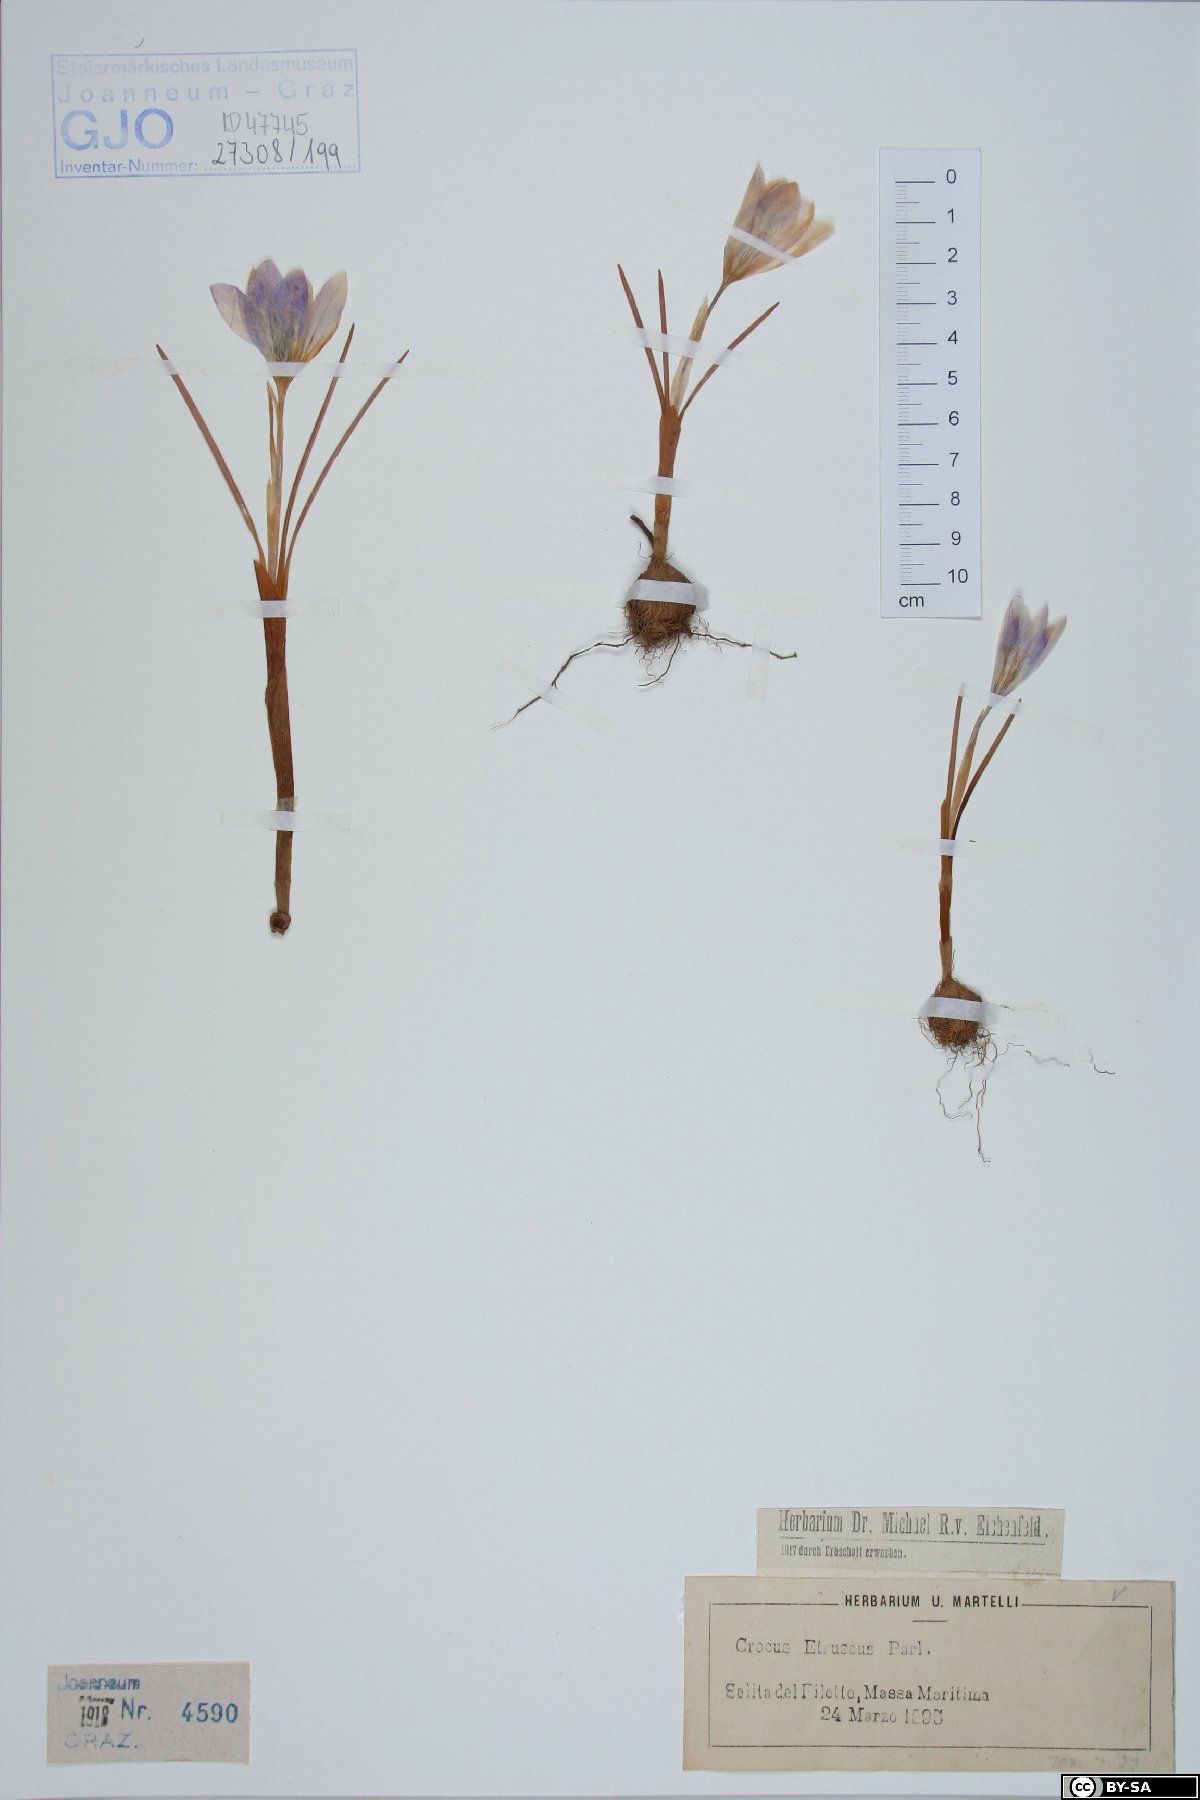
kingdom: Plantae
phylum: Tracheophyta
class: Liliopsida
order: Asparagales
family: Iridaceae
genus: Crocus
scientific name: Crocus etruscus
